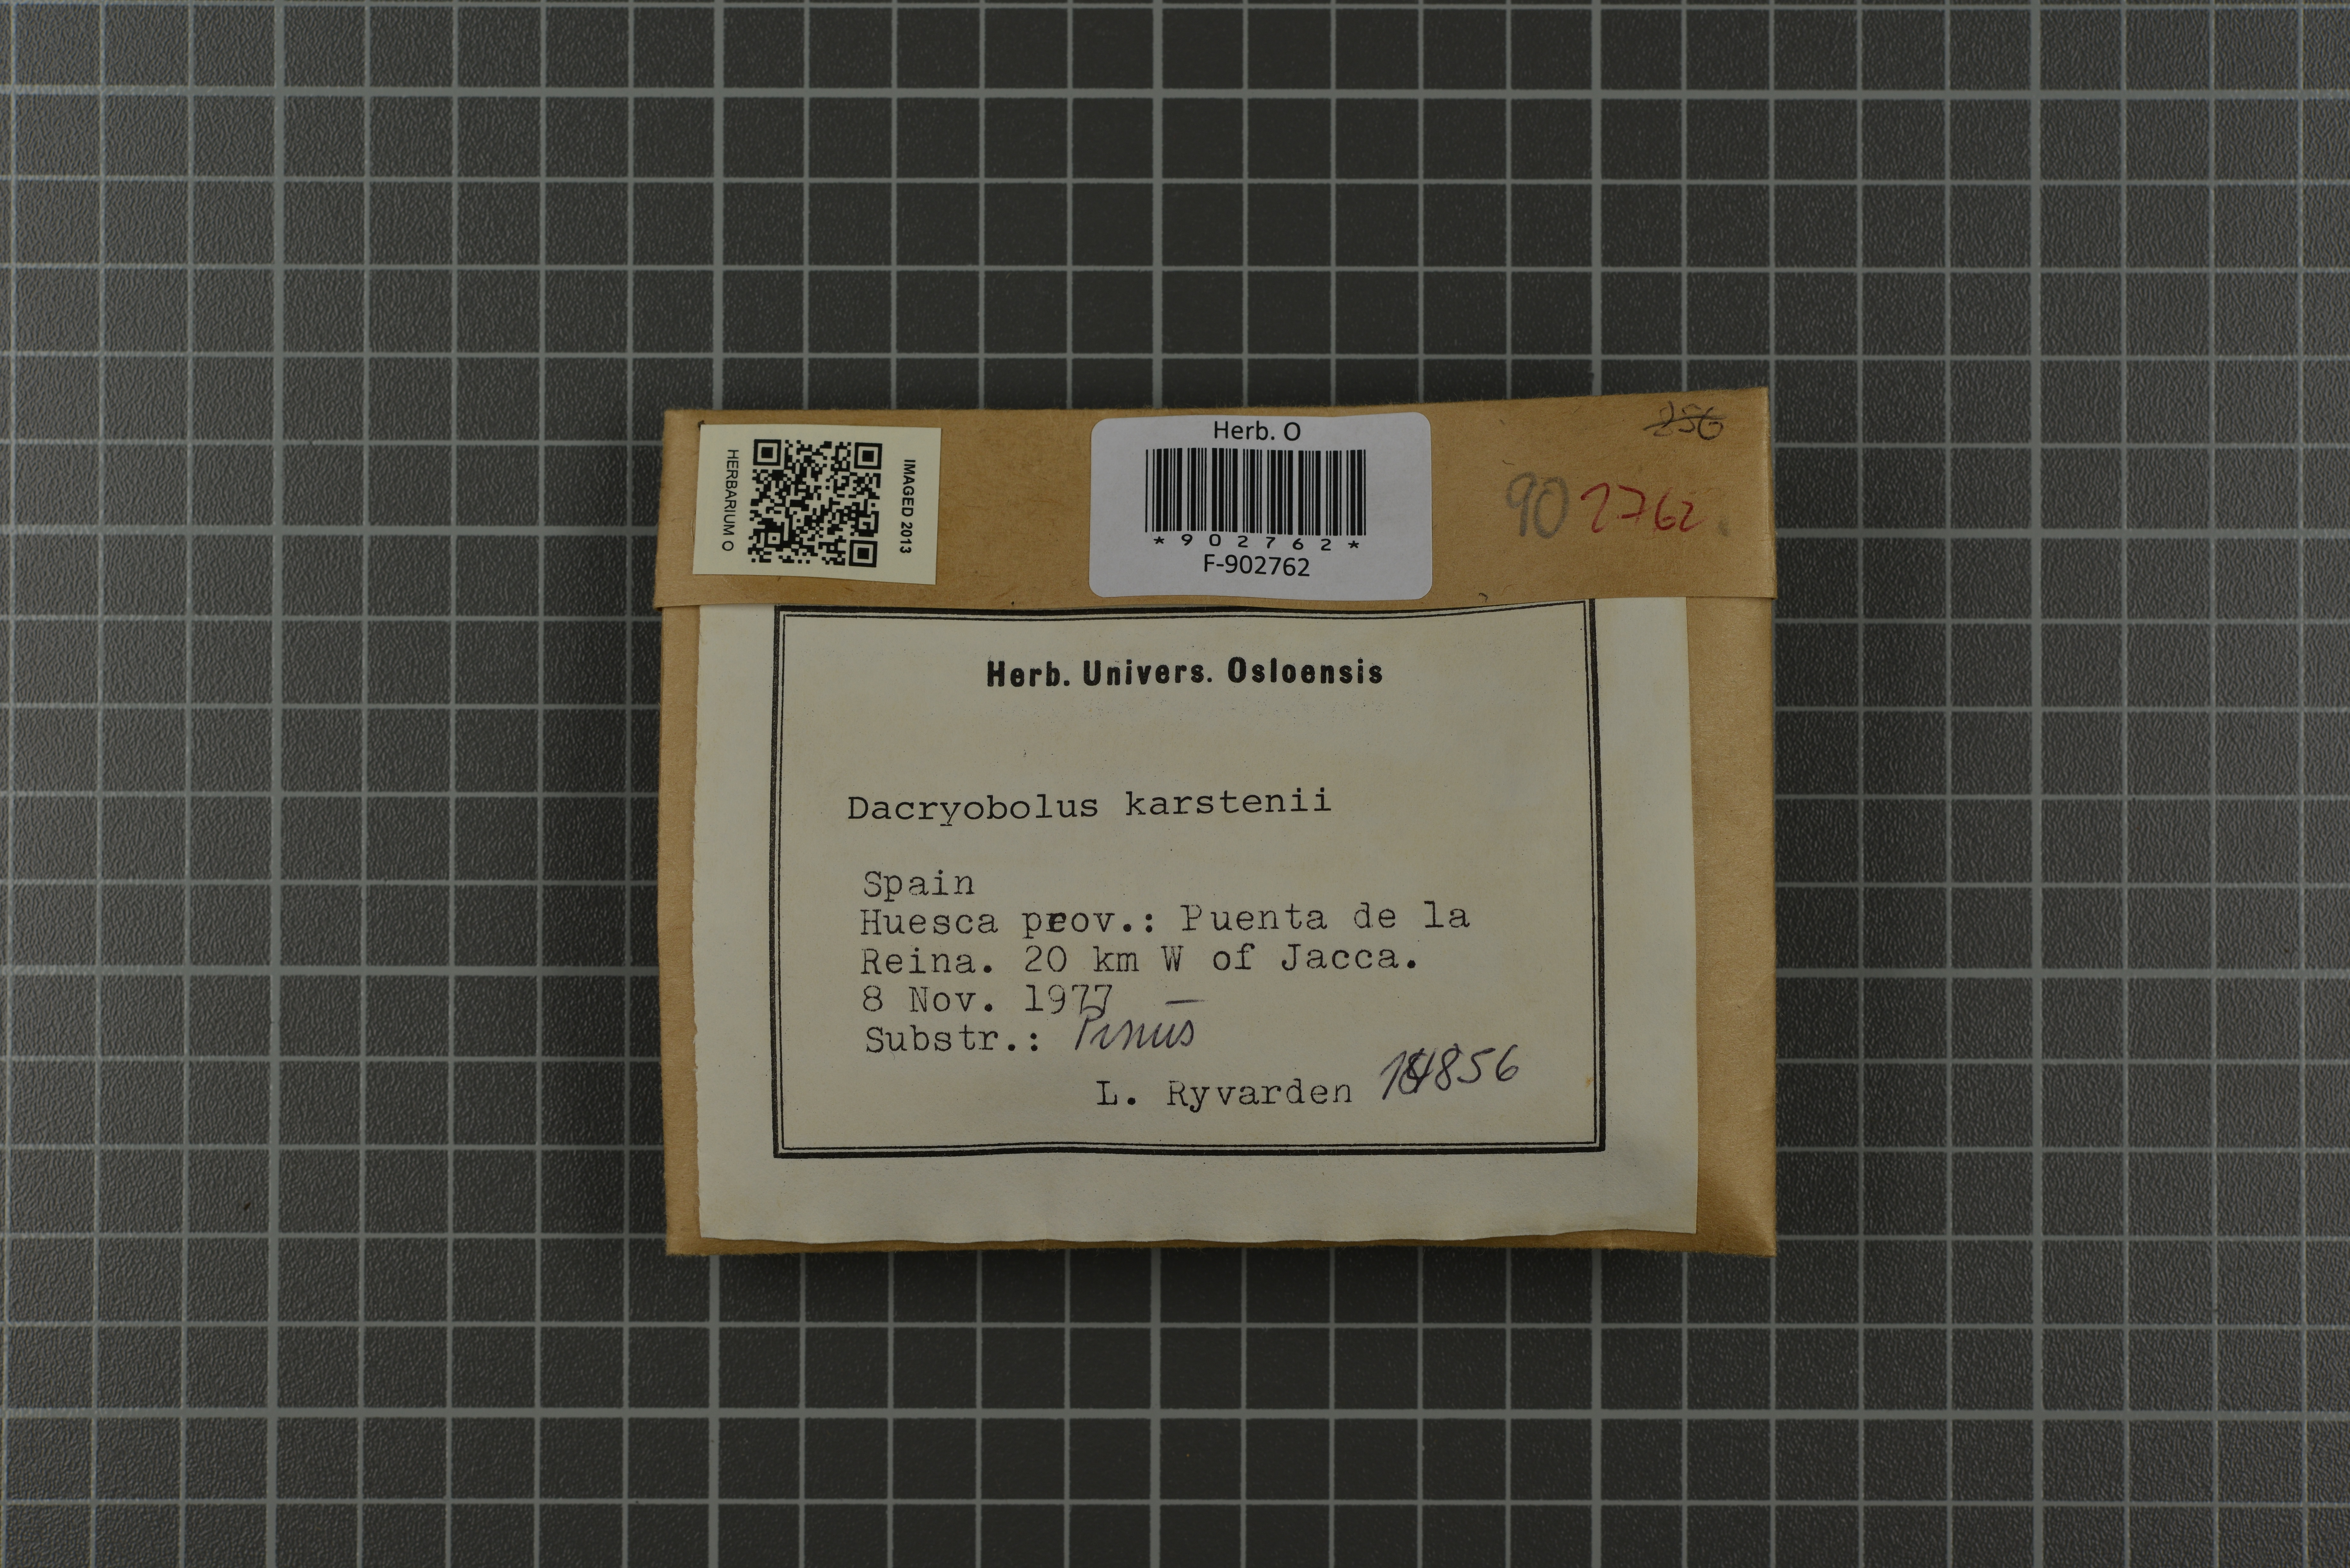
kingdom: Fungi
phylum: Basidiomycota
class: Agaricomycetes
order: Polyporales
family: Dacryobolaceae
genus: Dacryobolus
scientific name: Dacryobolus karstenii
